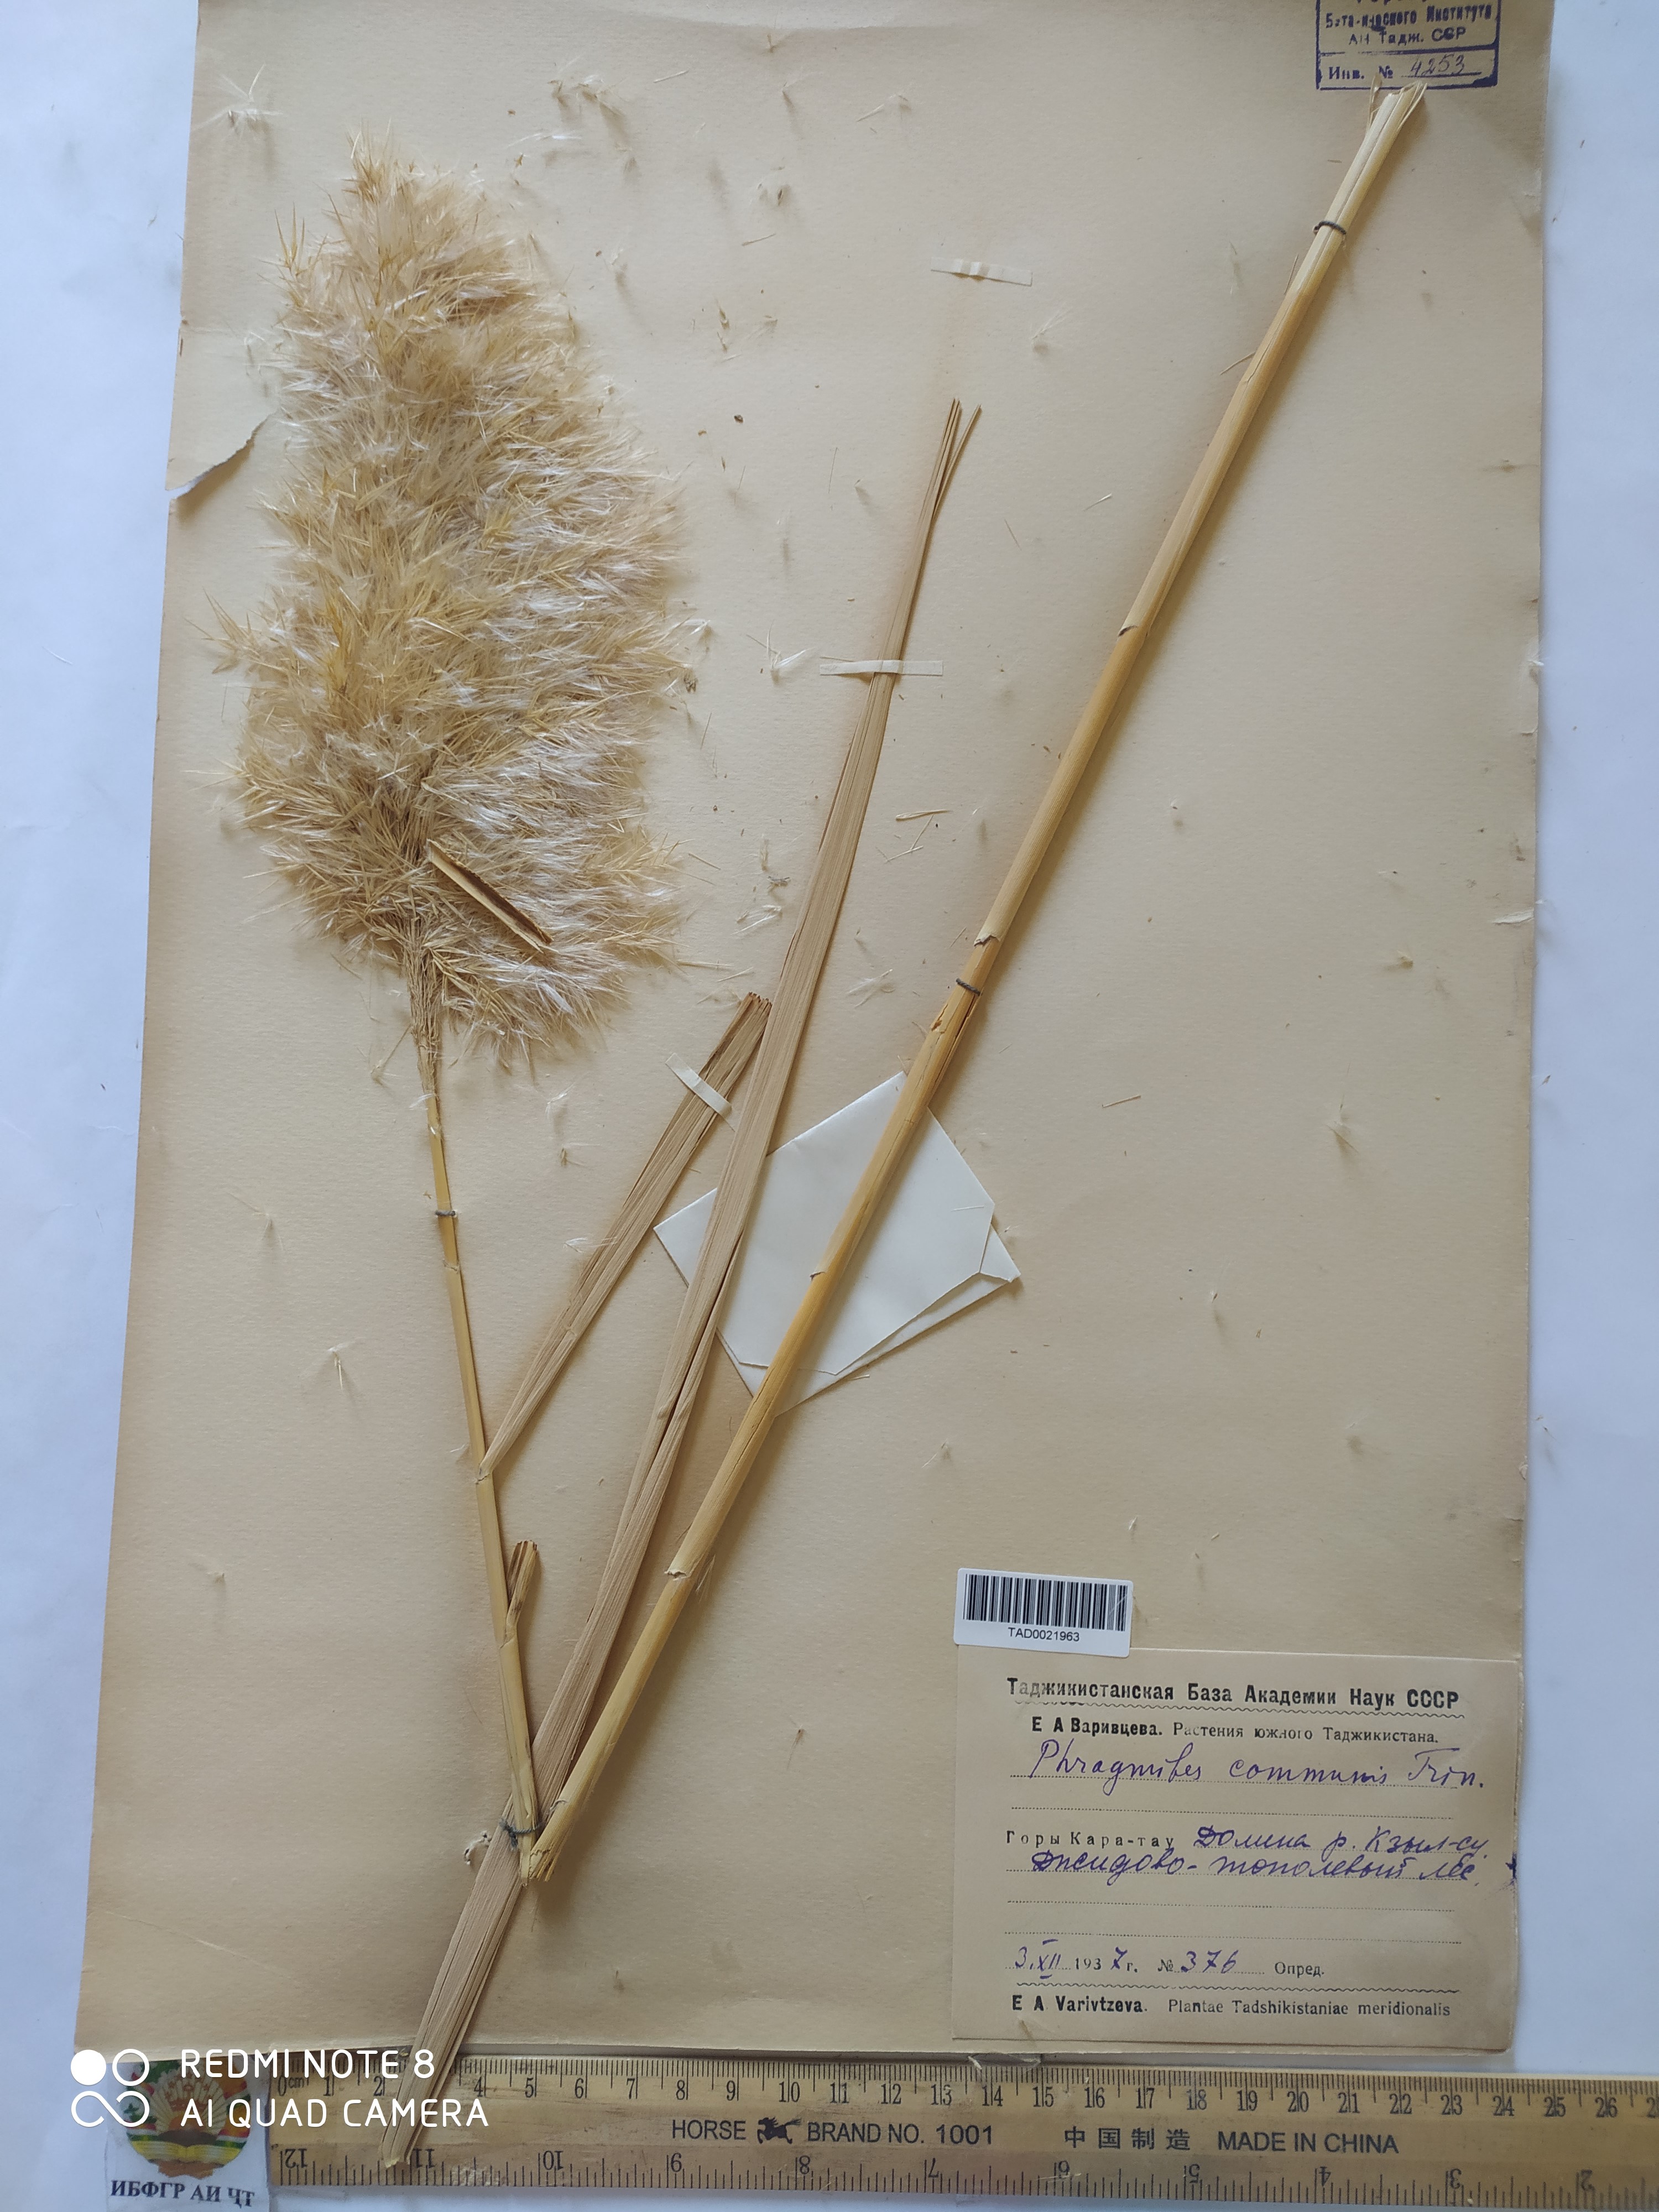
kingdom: Plantae
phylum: Tracheophyta
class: Liliopsida
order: Poales
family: Poaceae
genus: Phragmites
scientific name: Phragmites australis
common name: Common reed
